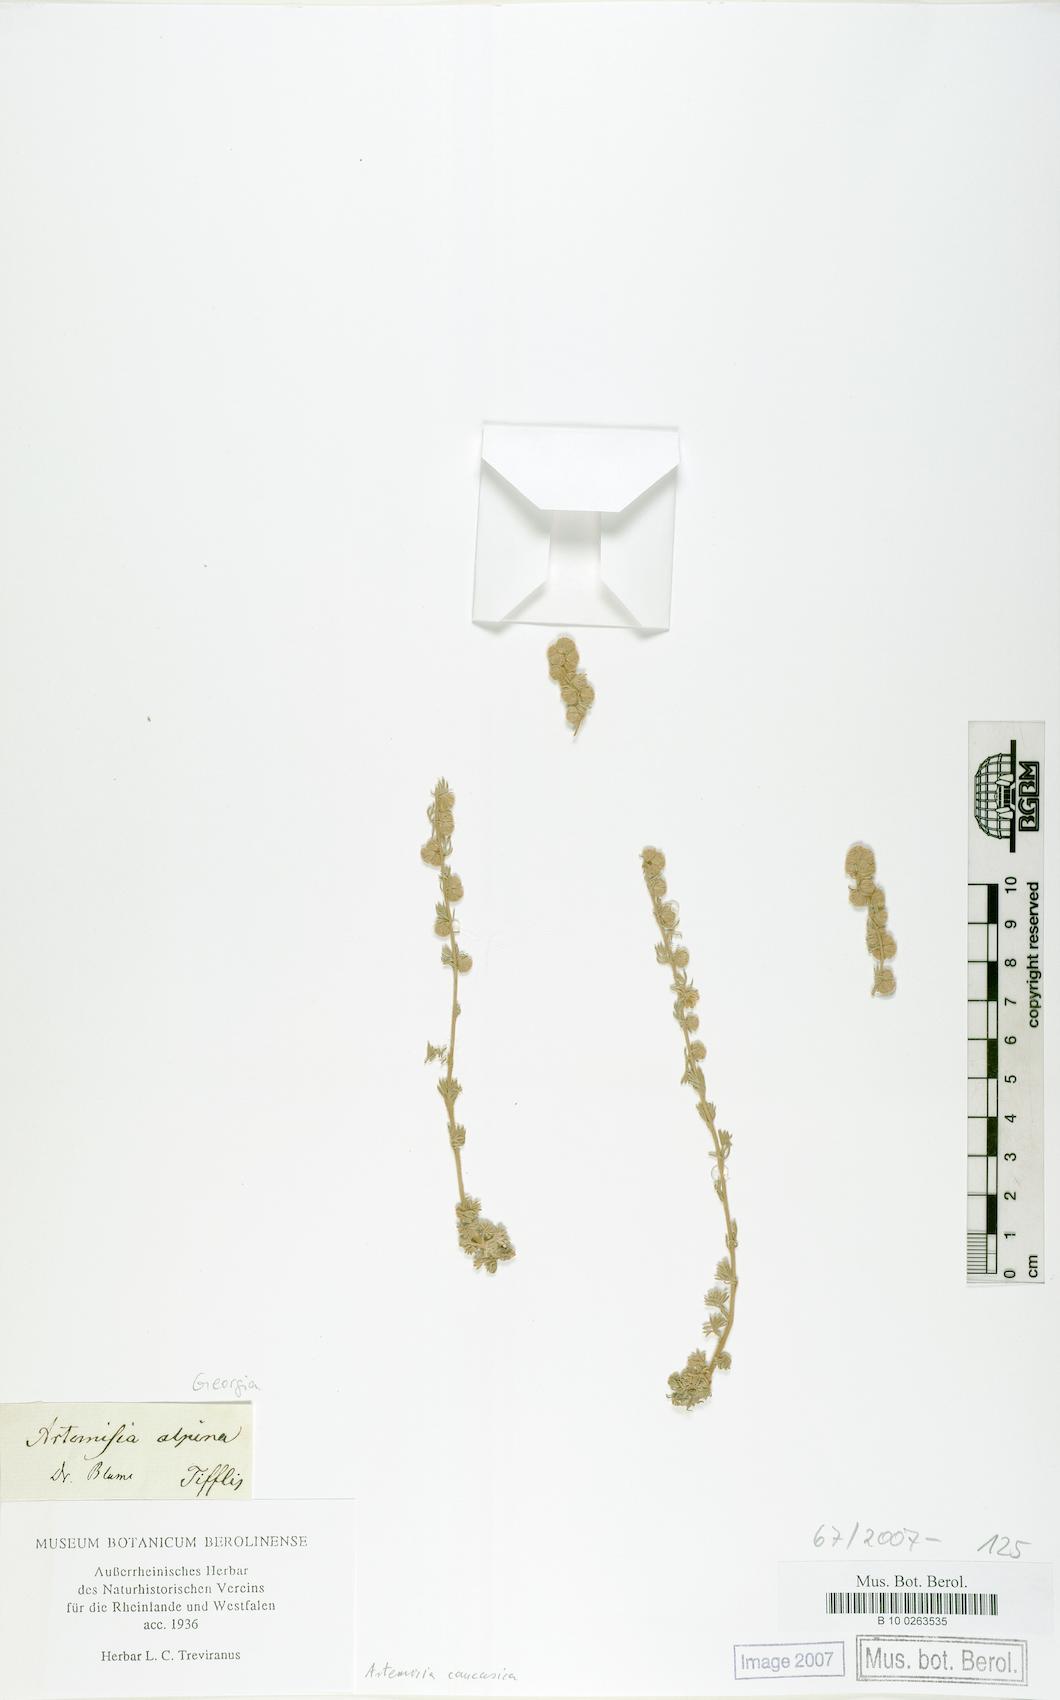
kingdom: Plantae
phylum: Tracheophyta
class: Magnoliopsida
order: Asterales
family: Asteraceae
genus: Artemisia
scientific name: Artemisia alpina
